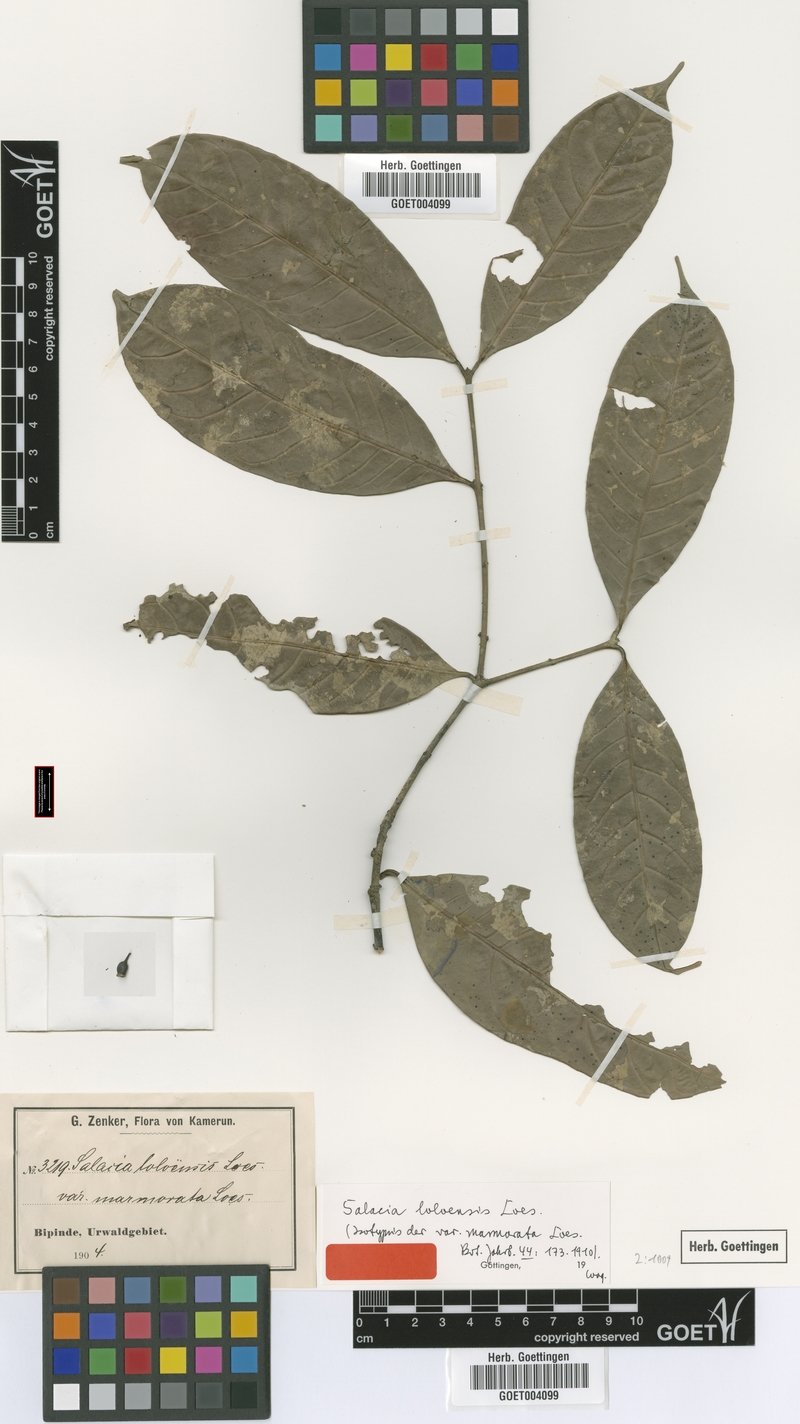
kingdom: Plantae
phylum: Tracheophyta
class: Magnoliopsida
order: Celastrales
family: Celastraceae
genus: Salacia
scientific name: Salacia loloensis
